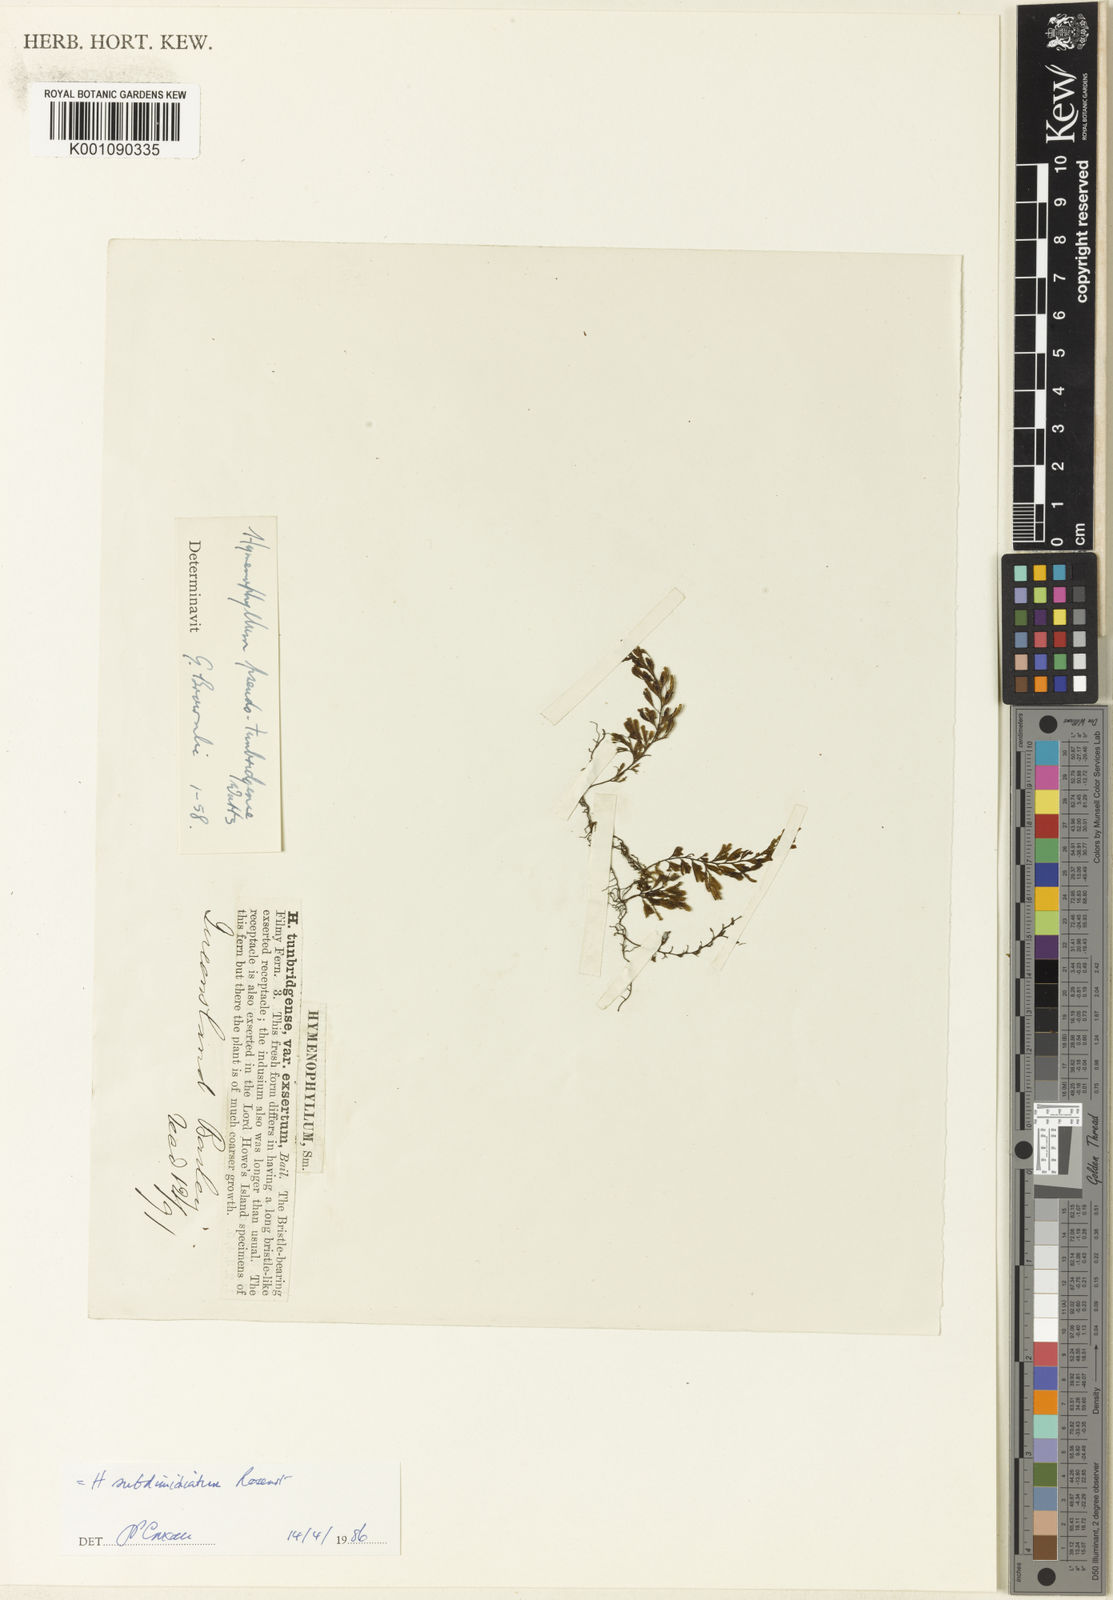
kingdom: Plantae
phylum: Tracheophyta
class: Polypodiopsida
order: Hymenophyllales
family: Hymenophyllaceae
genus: Hymenophyllum
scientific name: Hymenophyllum holochilum
